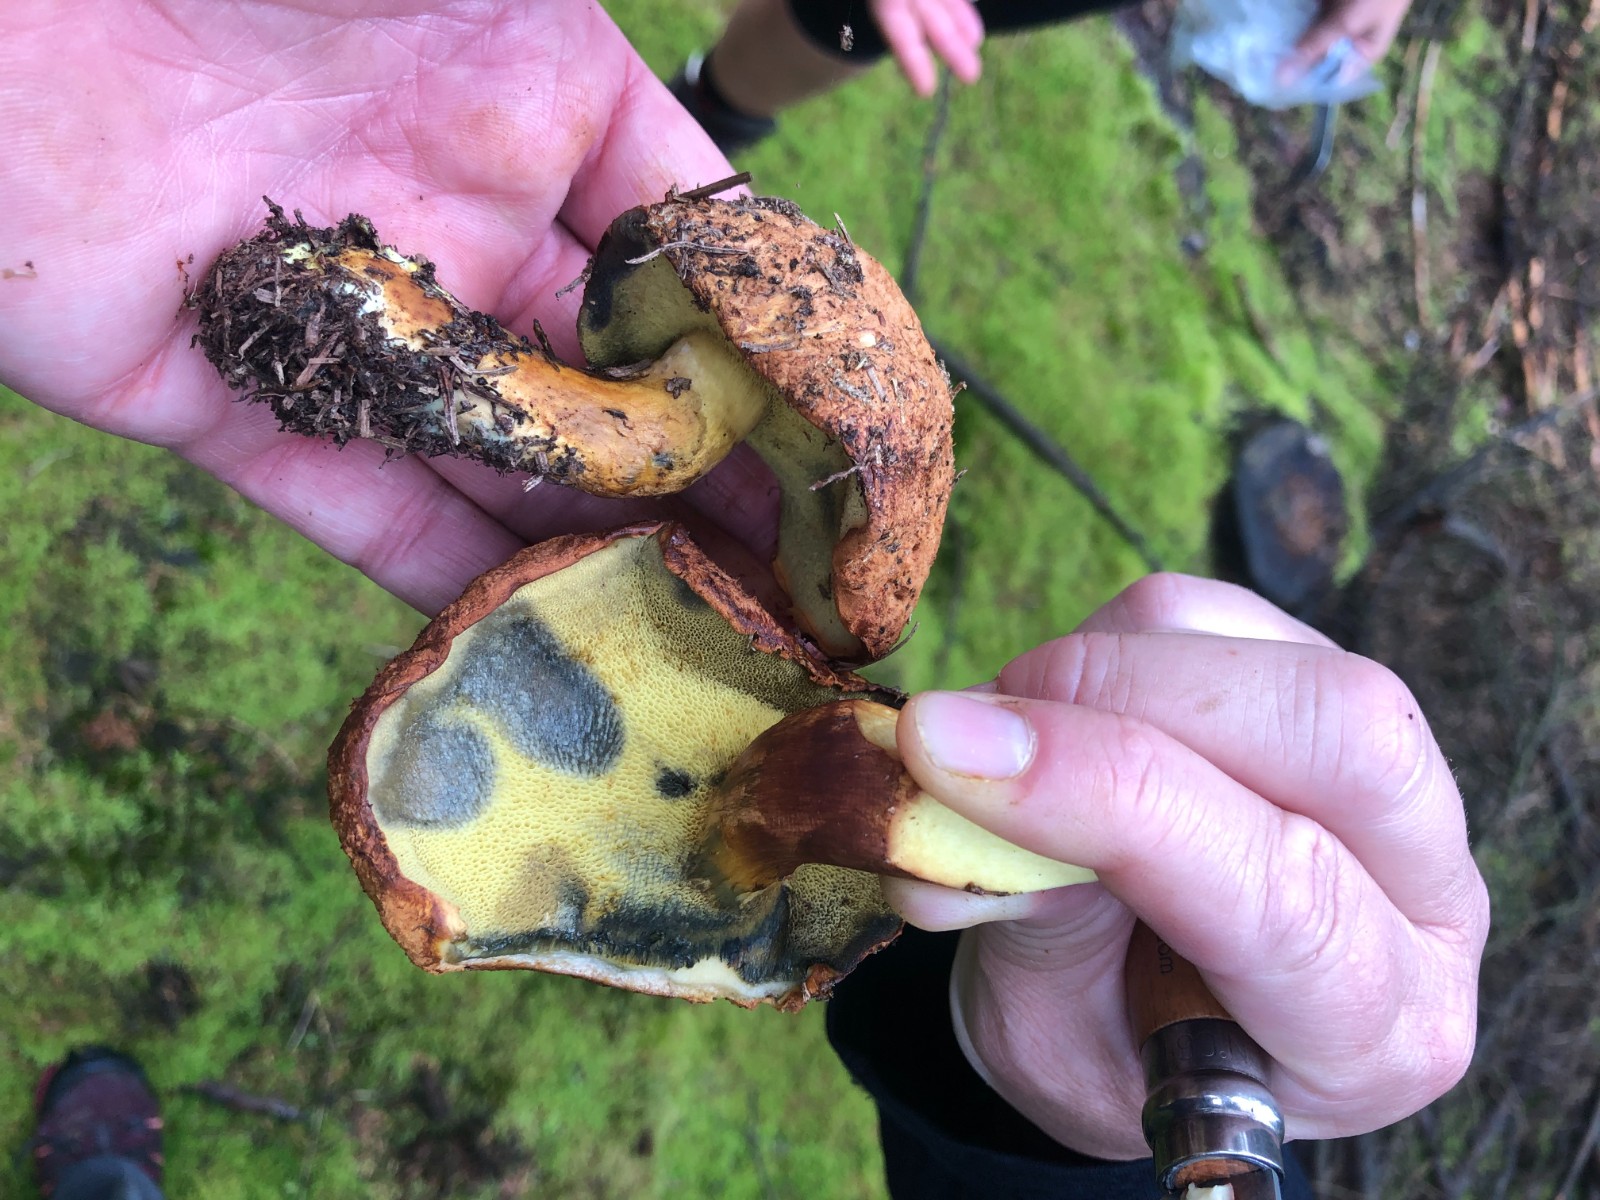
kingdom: Fungi
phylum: Basidiomycota
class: Agaricomycetes
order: Boletales
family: Boletaceae
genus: Buchwaldoboletus
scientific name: Buchwaldoboletus lignicola
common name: stødrørhat
